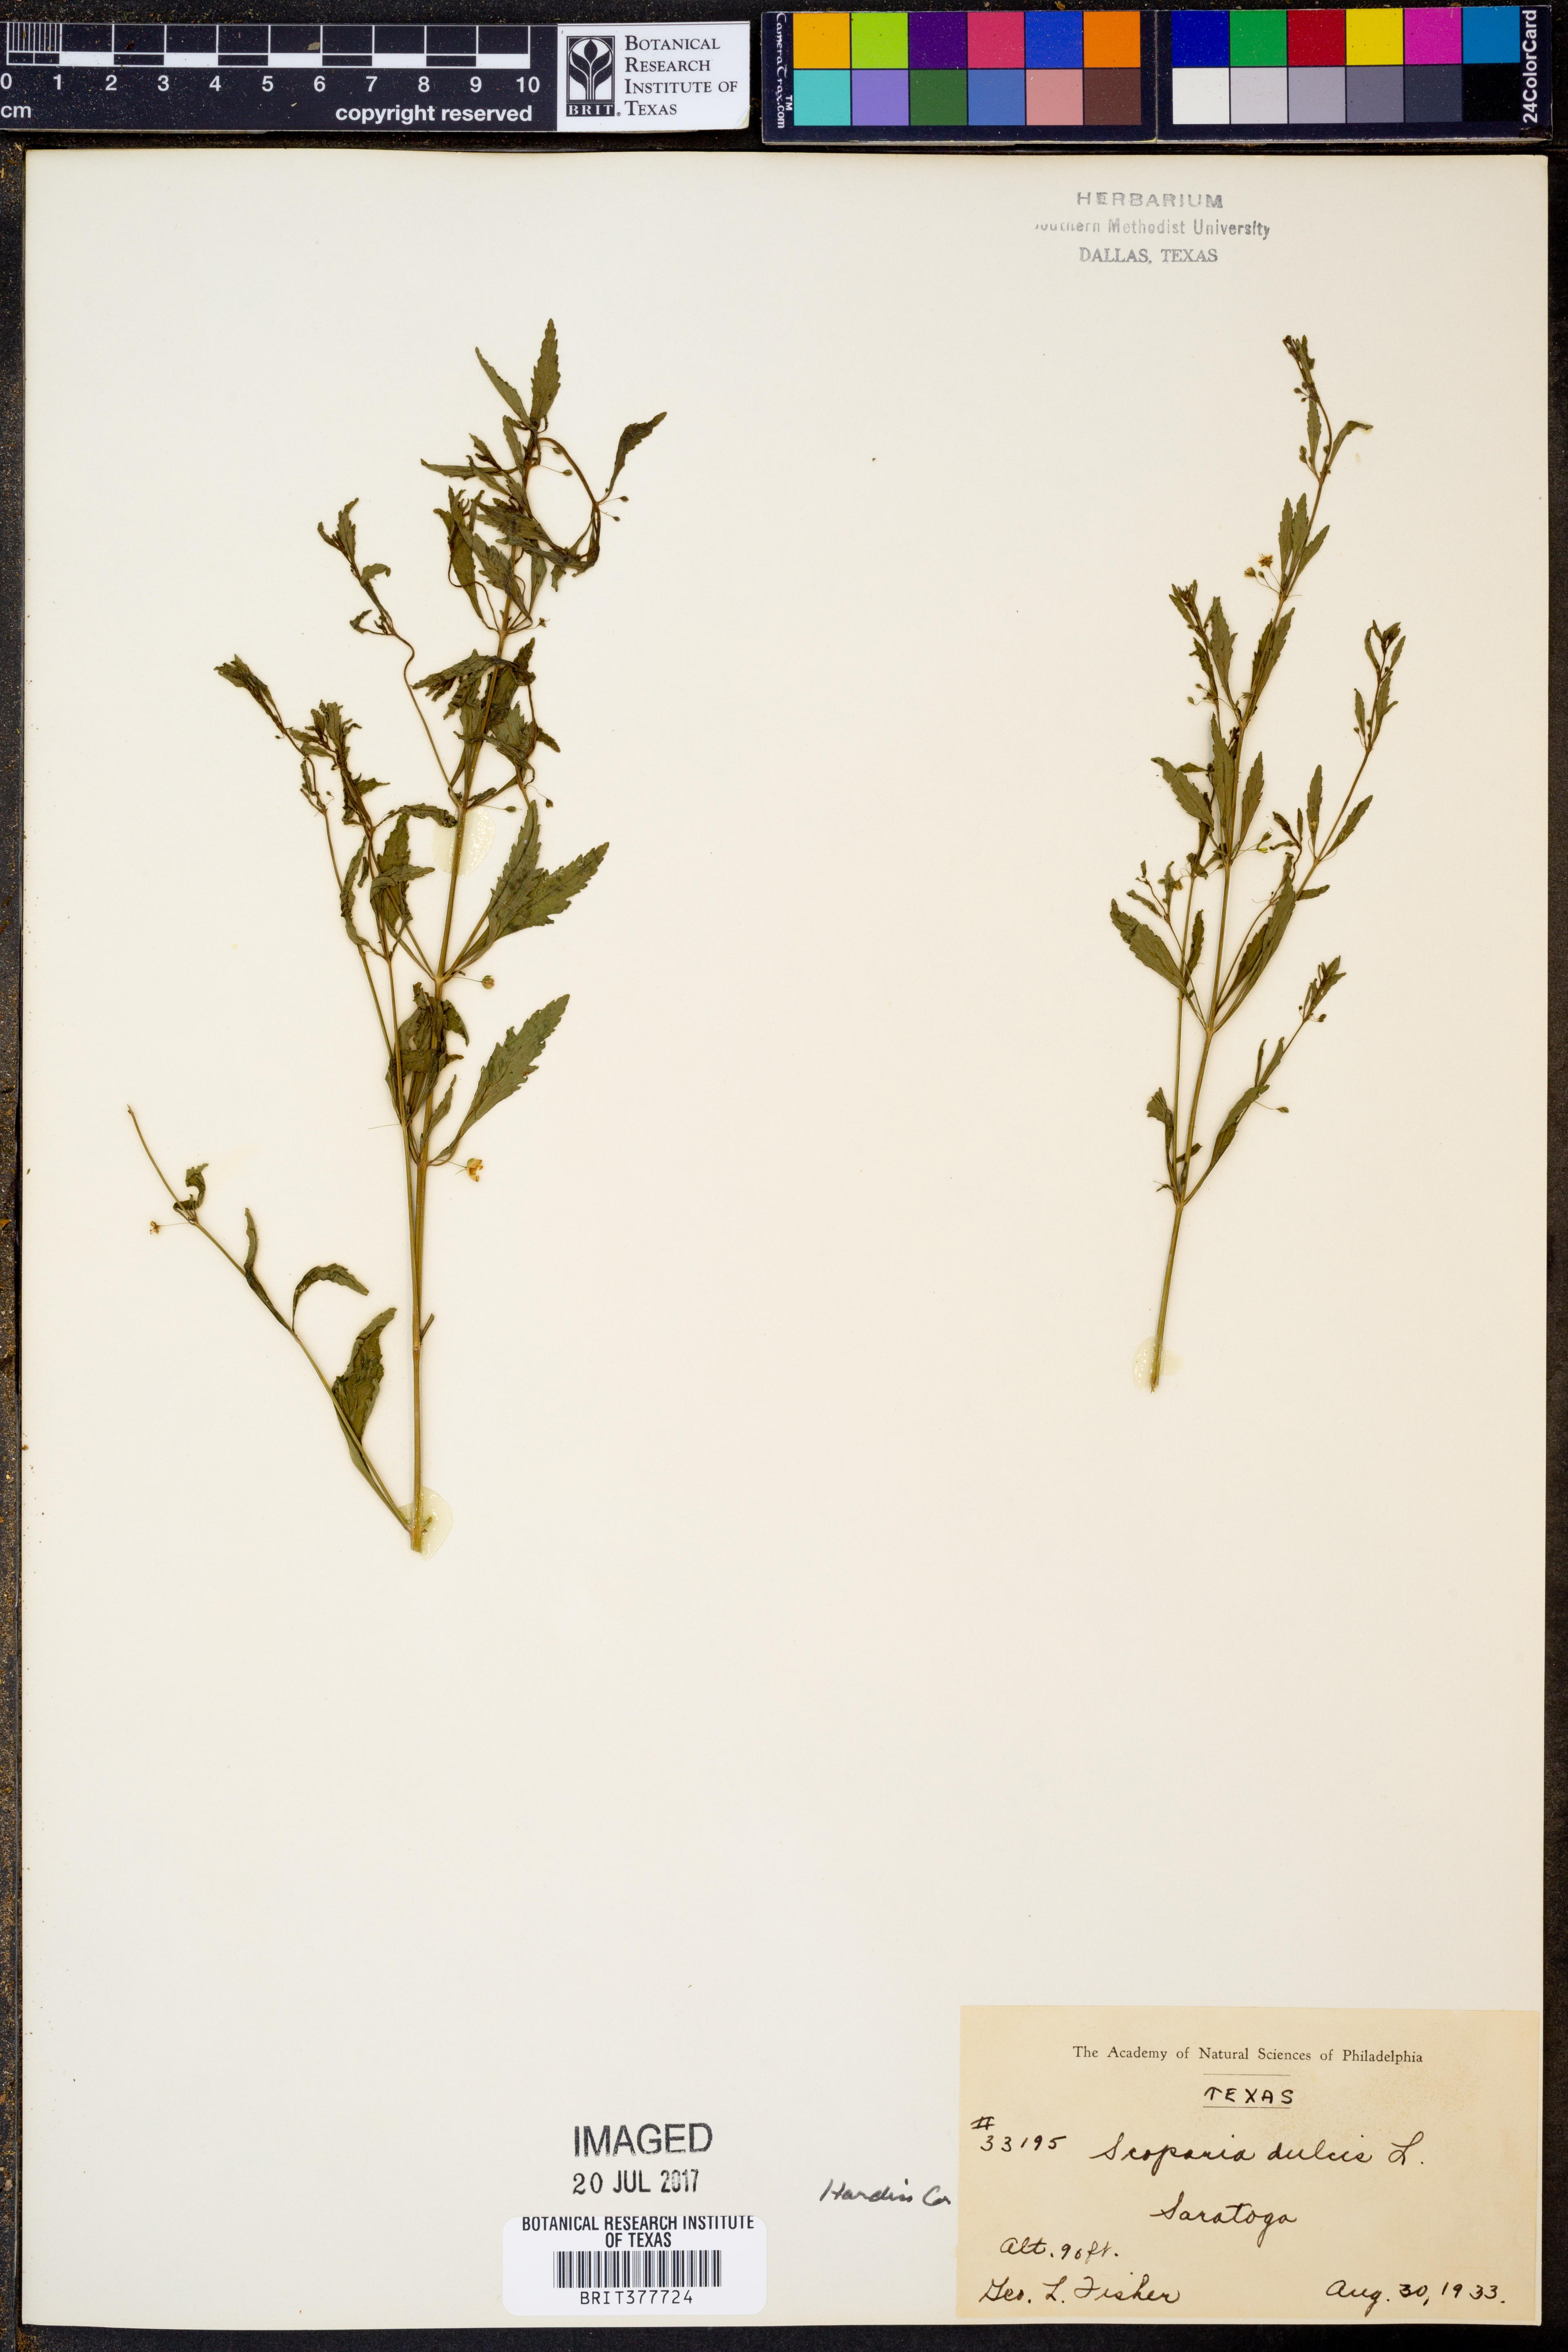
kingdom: Plantae
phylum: Tracheophyta
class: Magnoliopsida
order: Lamiales
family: Plantaginaceae
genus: Scoparia
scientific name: Scoparia dulcis
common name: Scoparia-weed
